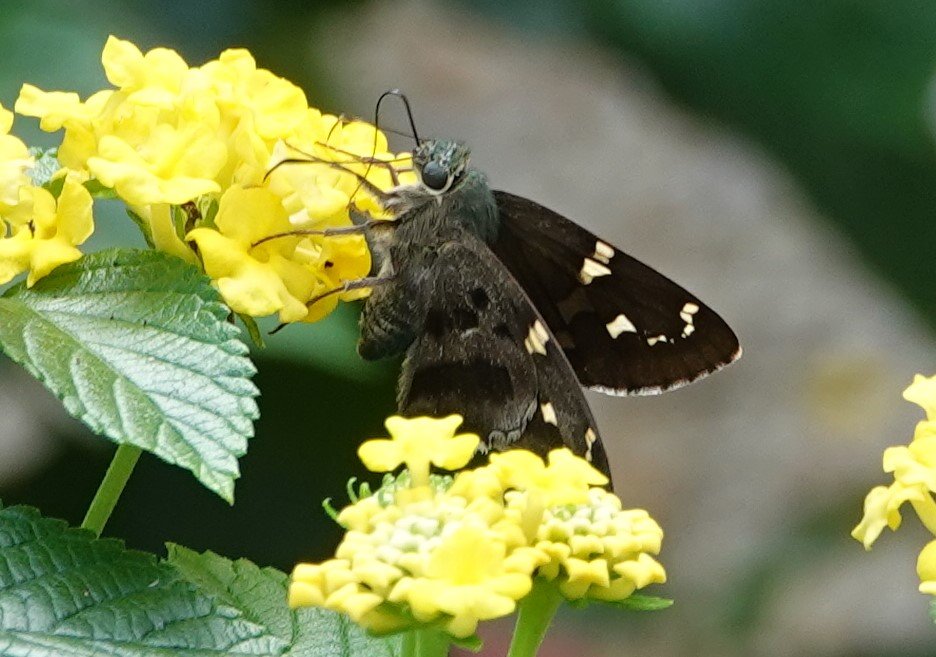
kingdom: Animalia
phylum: Arthropoda
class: Insecta
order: Lepidoptera
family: Hesperiidae
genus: Urbanus
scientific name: Urbanus proteus
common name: Long-tailed Skipper
